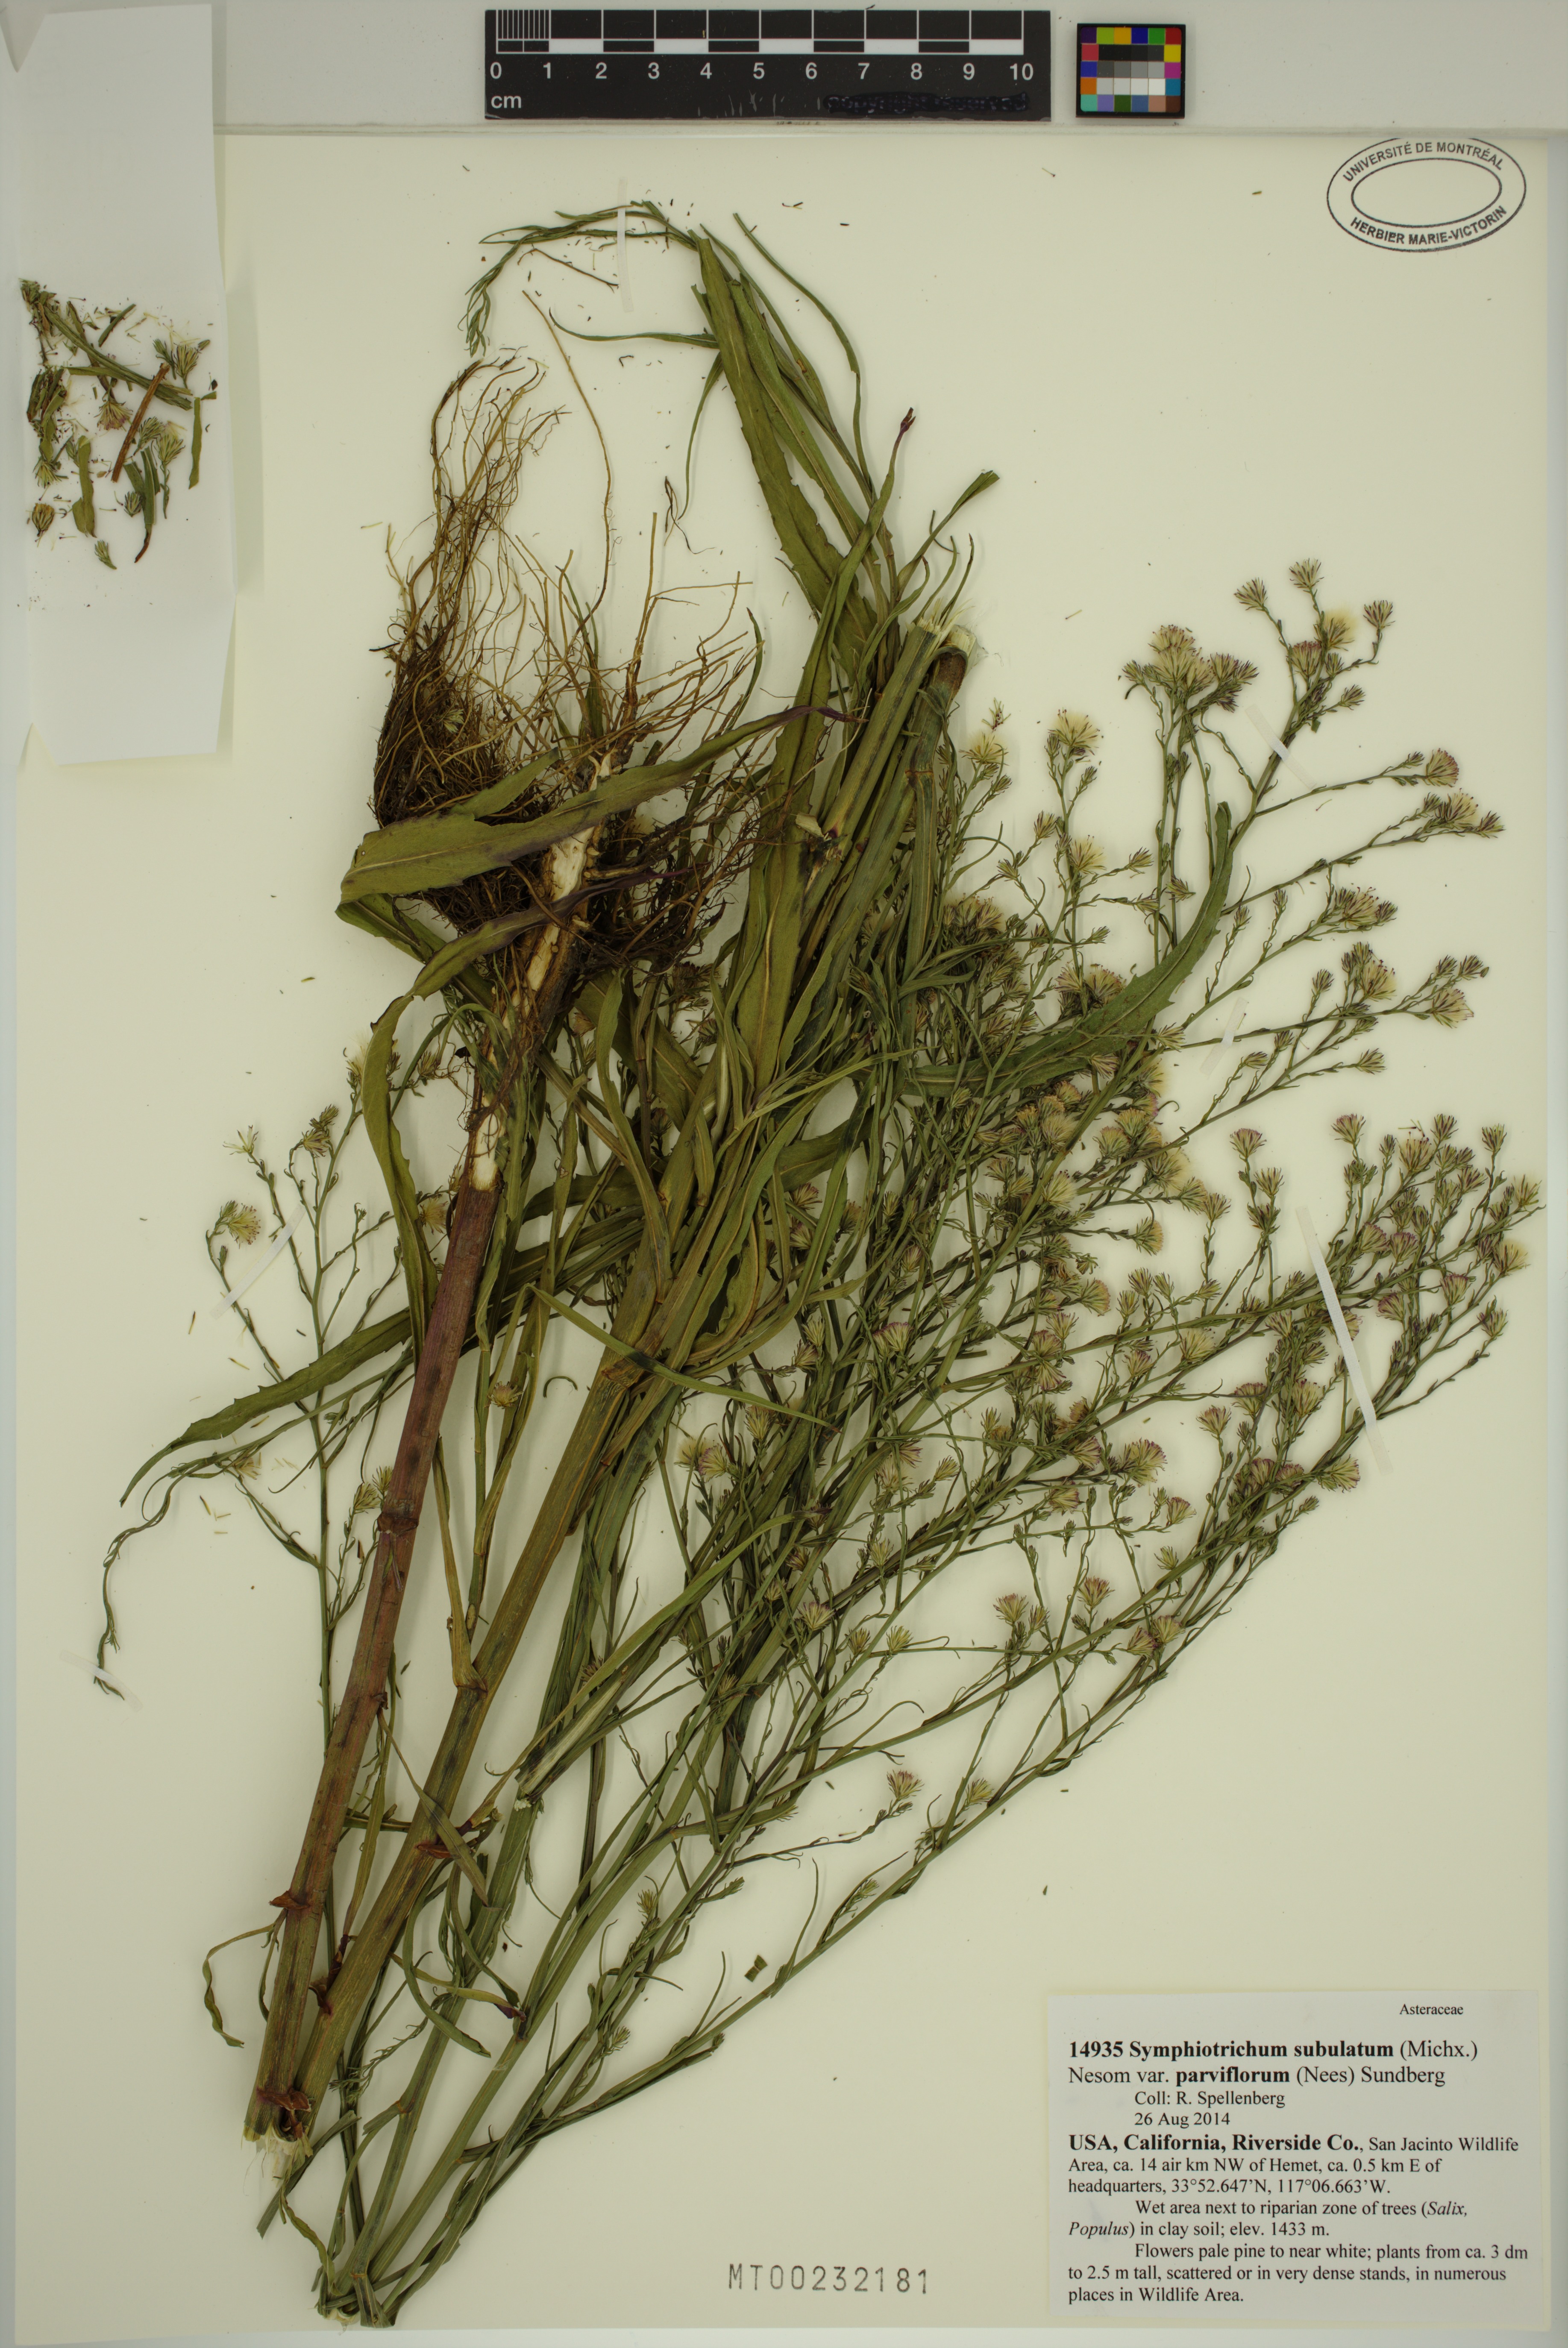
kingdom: Plantae
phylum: Tracheophyta
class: Magnoliopsida
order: Asterales
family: Asteraceae
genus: Symphyotrichum
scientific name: Symphyotrichum expansum
